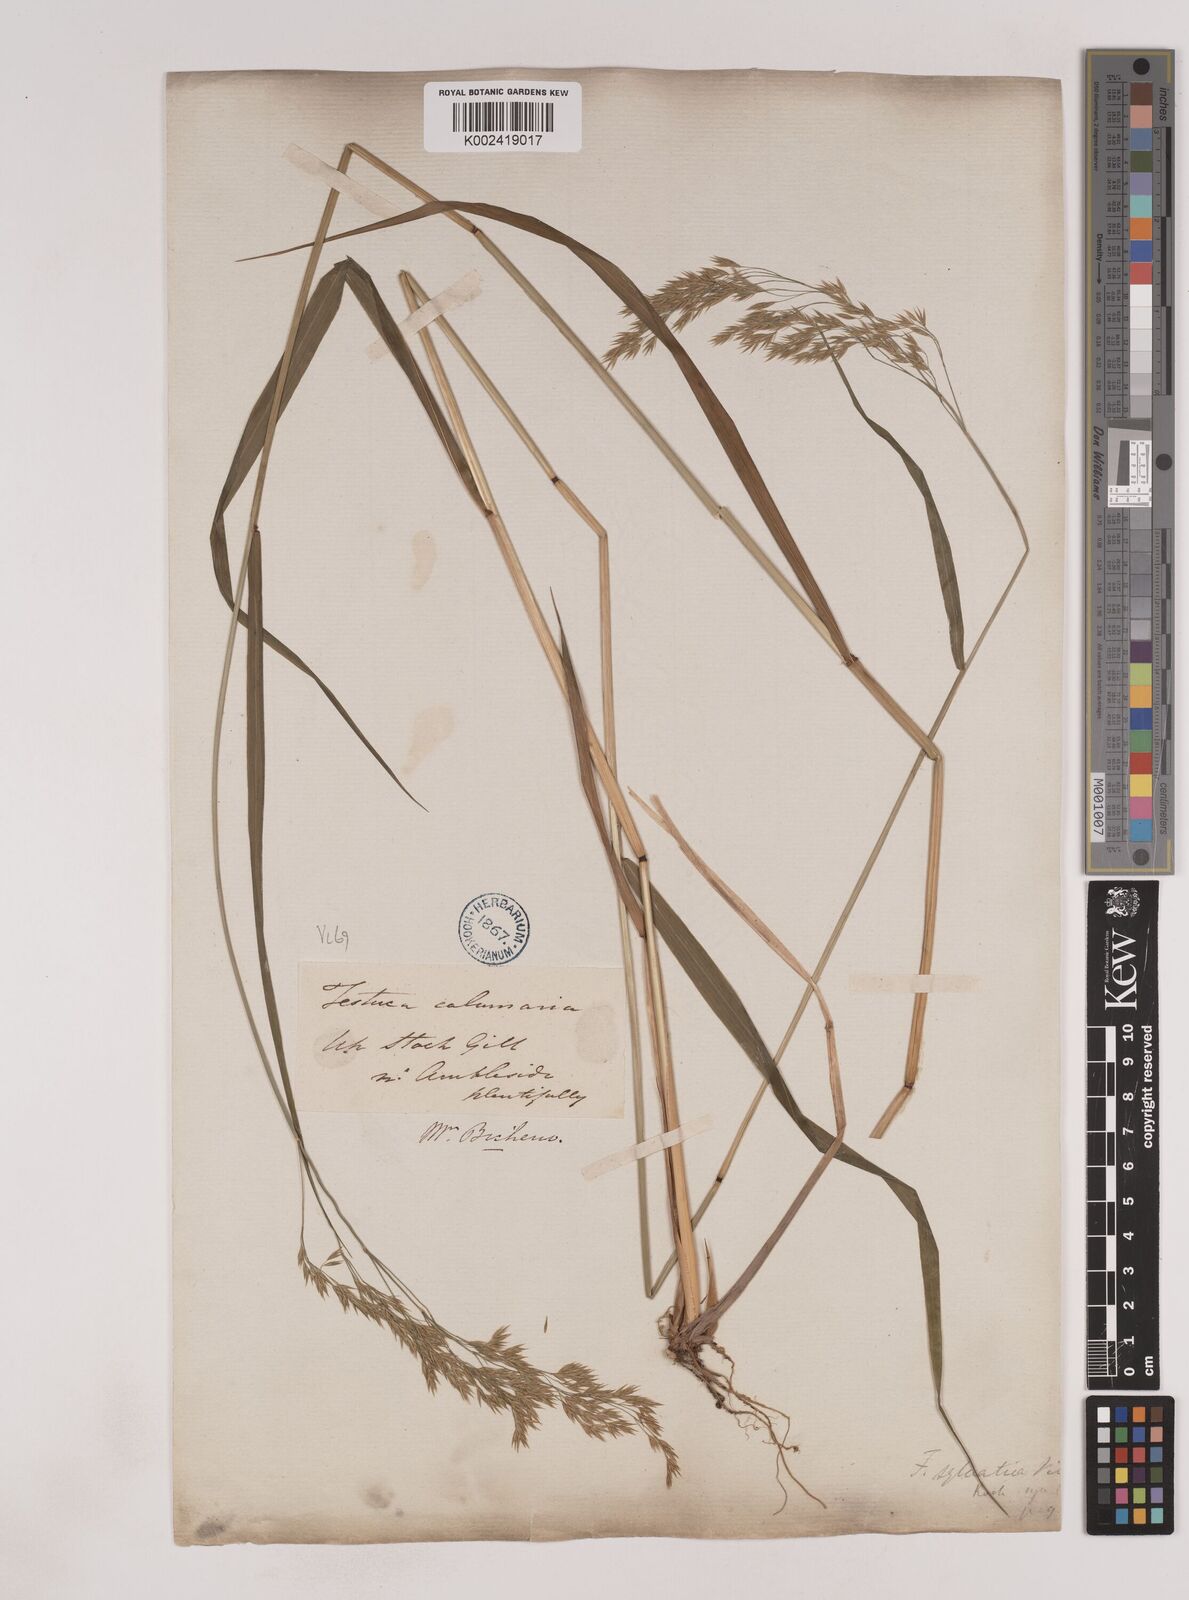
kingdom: Plantae
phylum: Tracheophyta
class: Liliopsida
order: Poales
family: Poaceae
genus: Festuca
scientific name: Festuca drymeja
